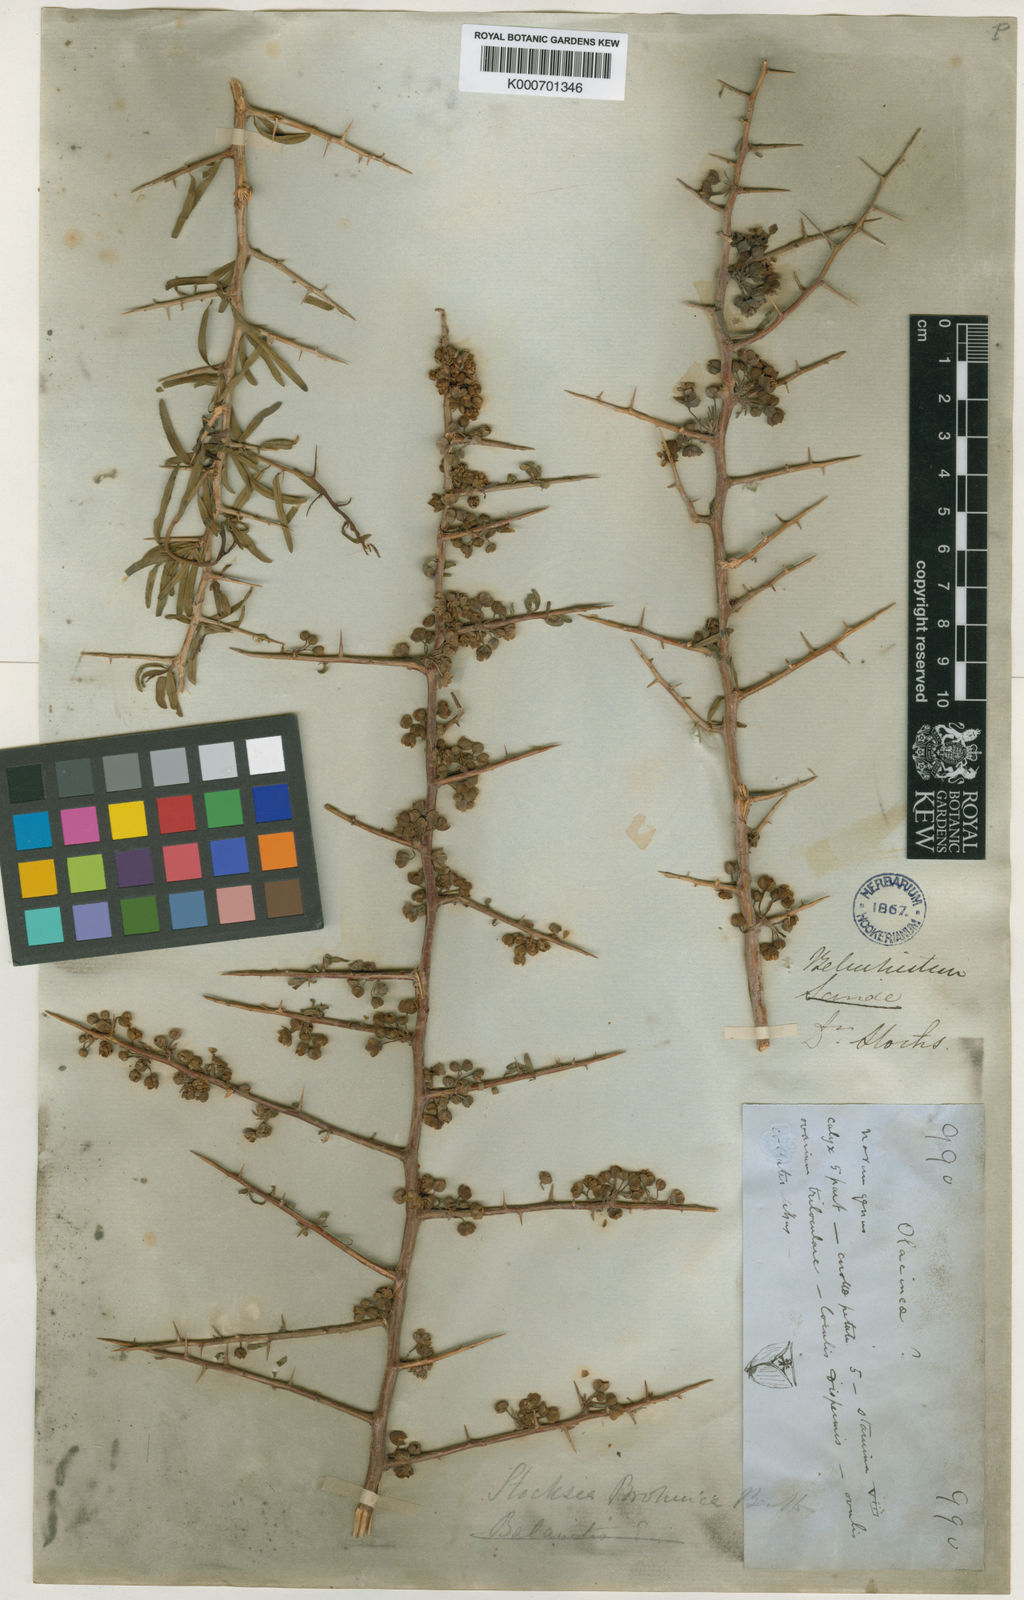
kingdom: Plantae
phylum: Tracheophyta
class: Magnoliopsida
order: Sapindales
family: Sapindaceae
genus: Stocksia
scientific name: Stocksia brahuica
